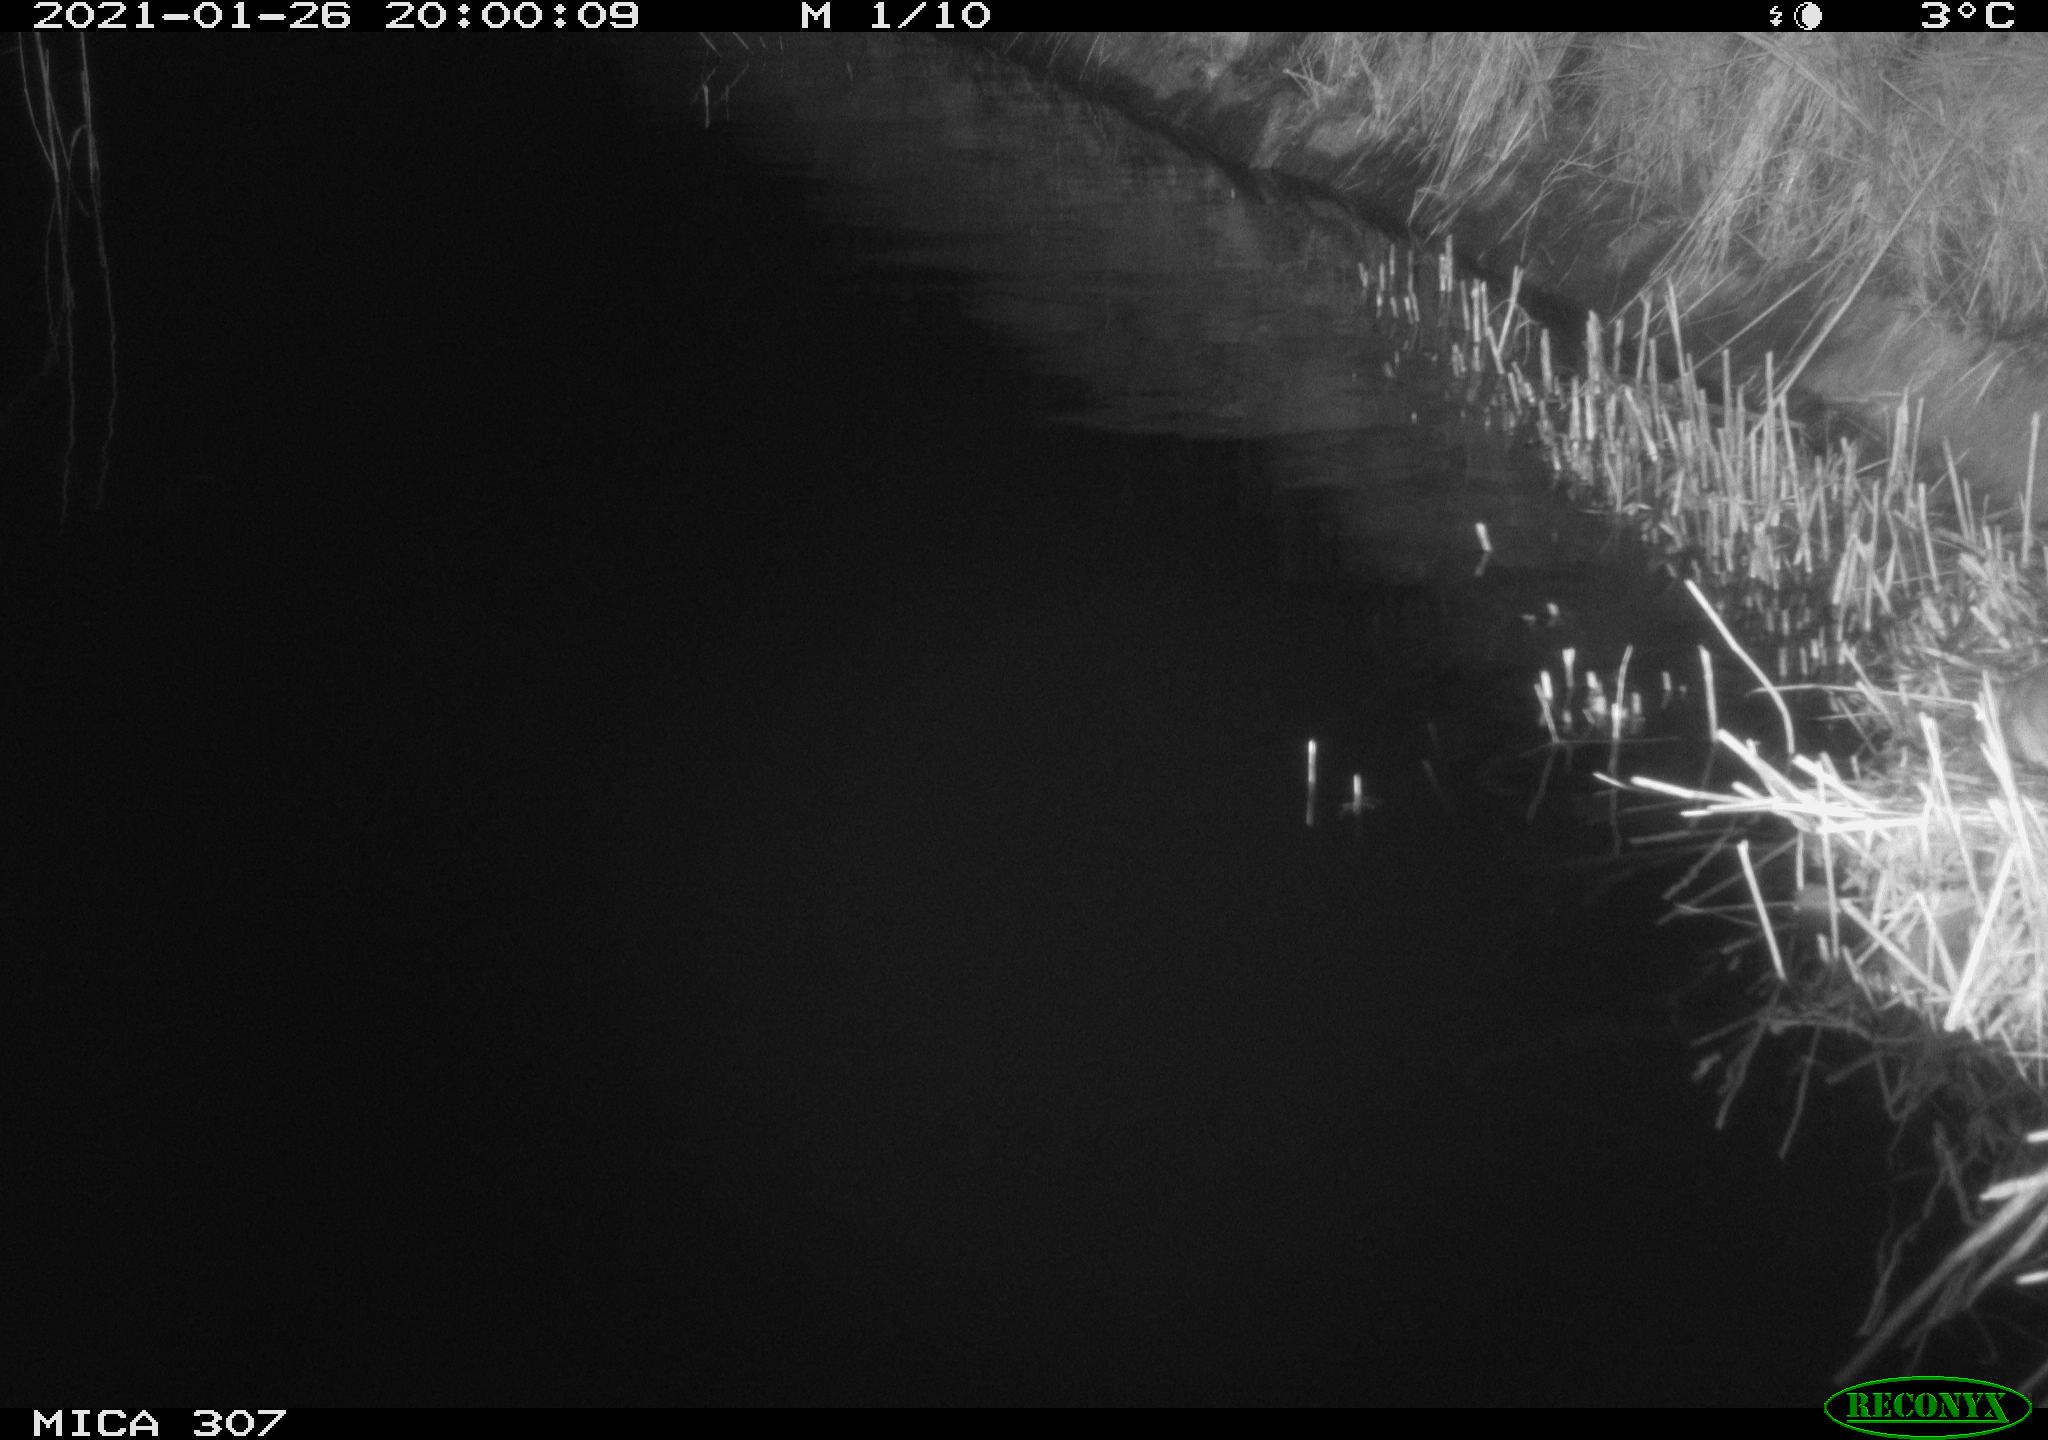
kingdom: Animalia
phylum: Chordata
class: Mammalia
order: Rodentia
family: Muridae
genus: Rattus
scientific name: Rattus norvegicus
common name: Brown rat
